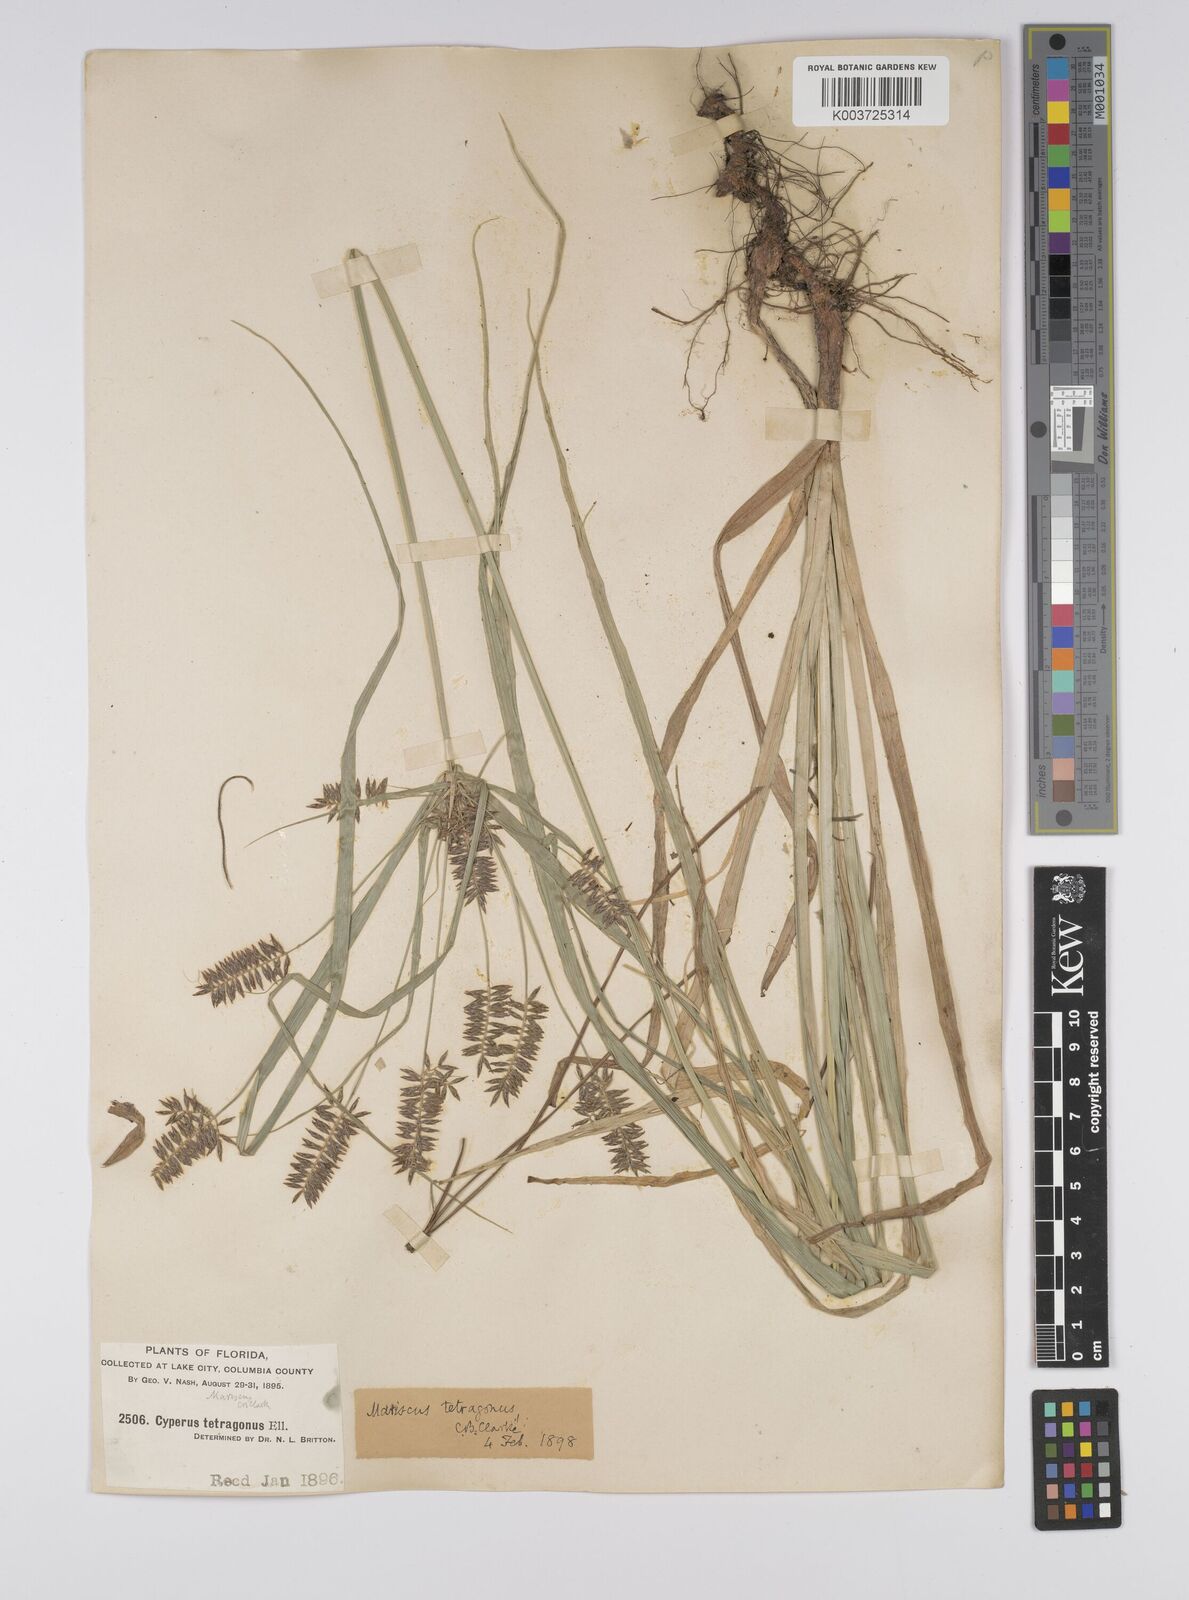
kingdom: Plantae
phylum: Tracheophyta
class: Liliopsida
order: Poales
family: Cyperaceae
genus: Cyperus
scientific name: Cyperus tetragonus
